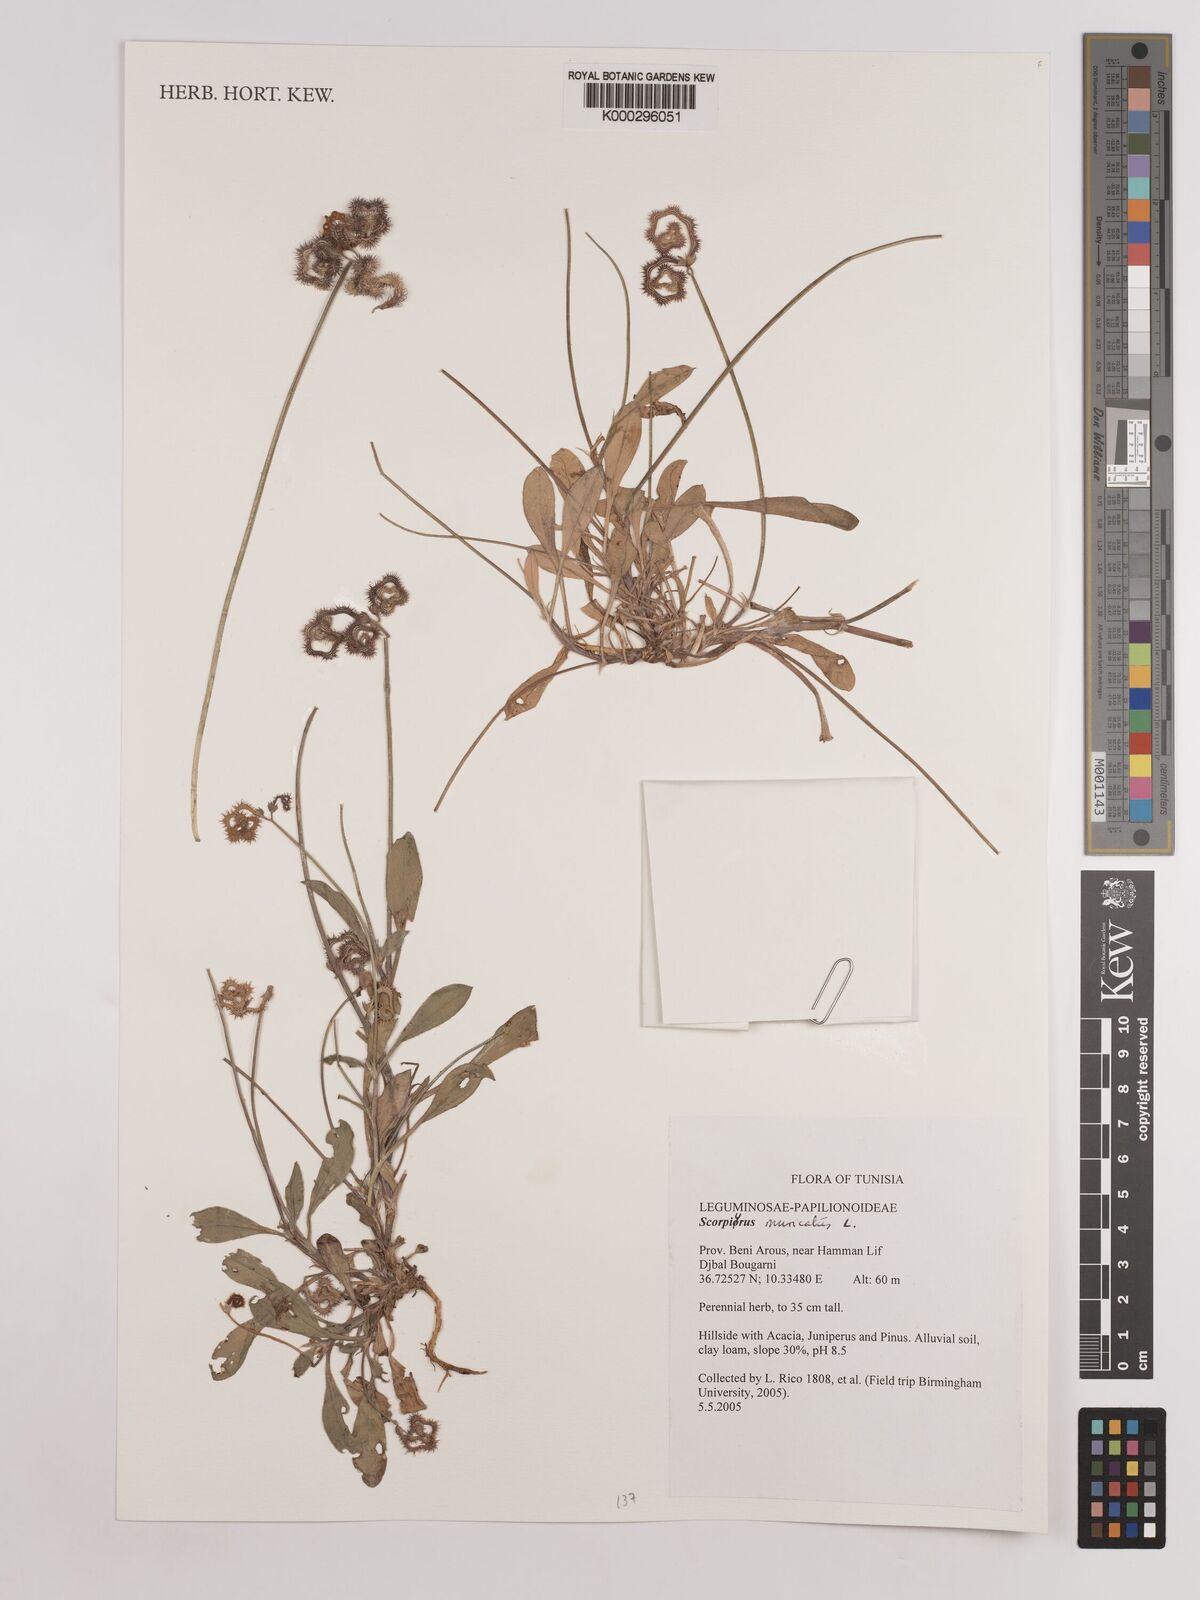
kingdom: Plantae
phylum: Tracheophyta
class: Magnoliopsida
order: Fabales
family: Fabaceae
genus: Scorpiurus
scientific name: Scorpiurus muricatus
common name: Caterpillar-plant
